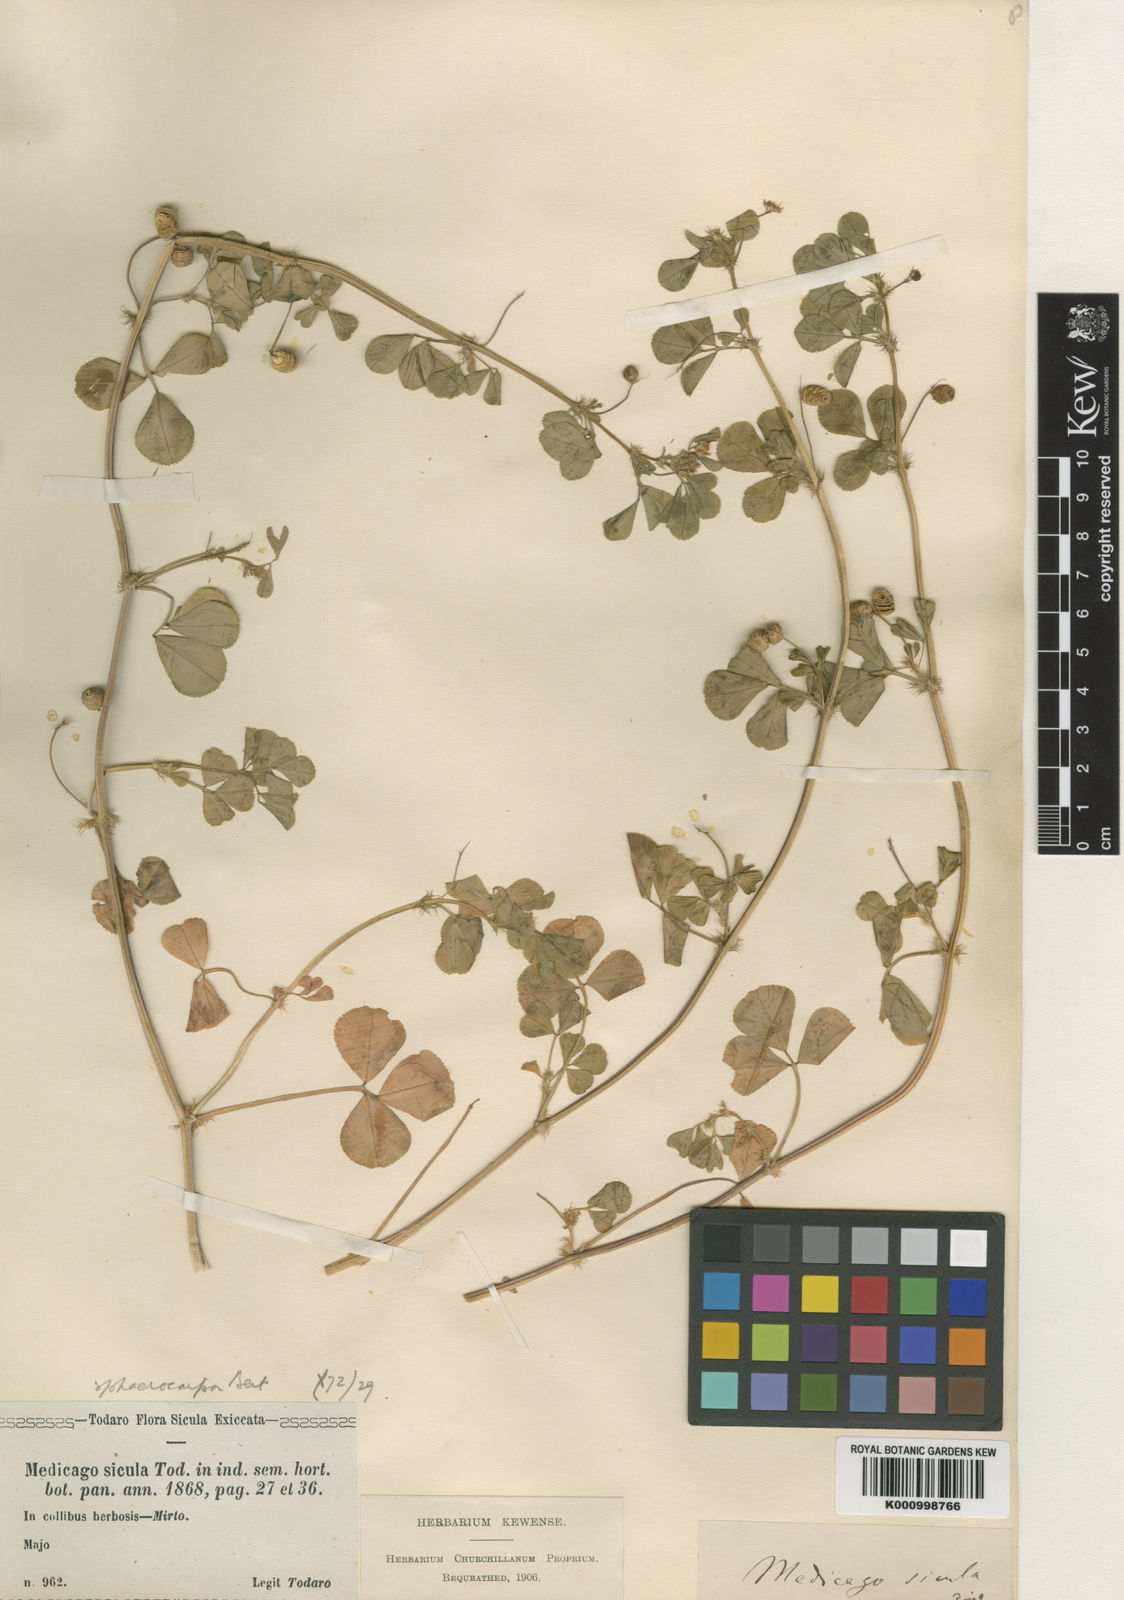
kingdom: Plantae
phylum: Tracheophyta
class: Magnoliopsida
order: Fabales
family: Fabaceae
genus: Medicago
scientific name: Medicago murex
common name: Murex
